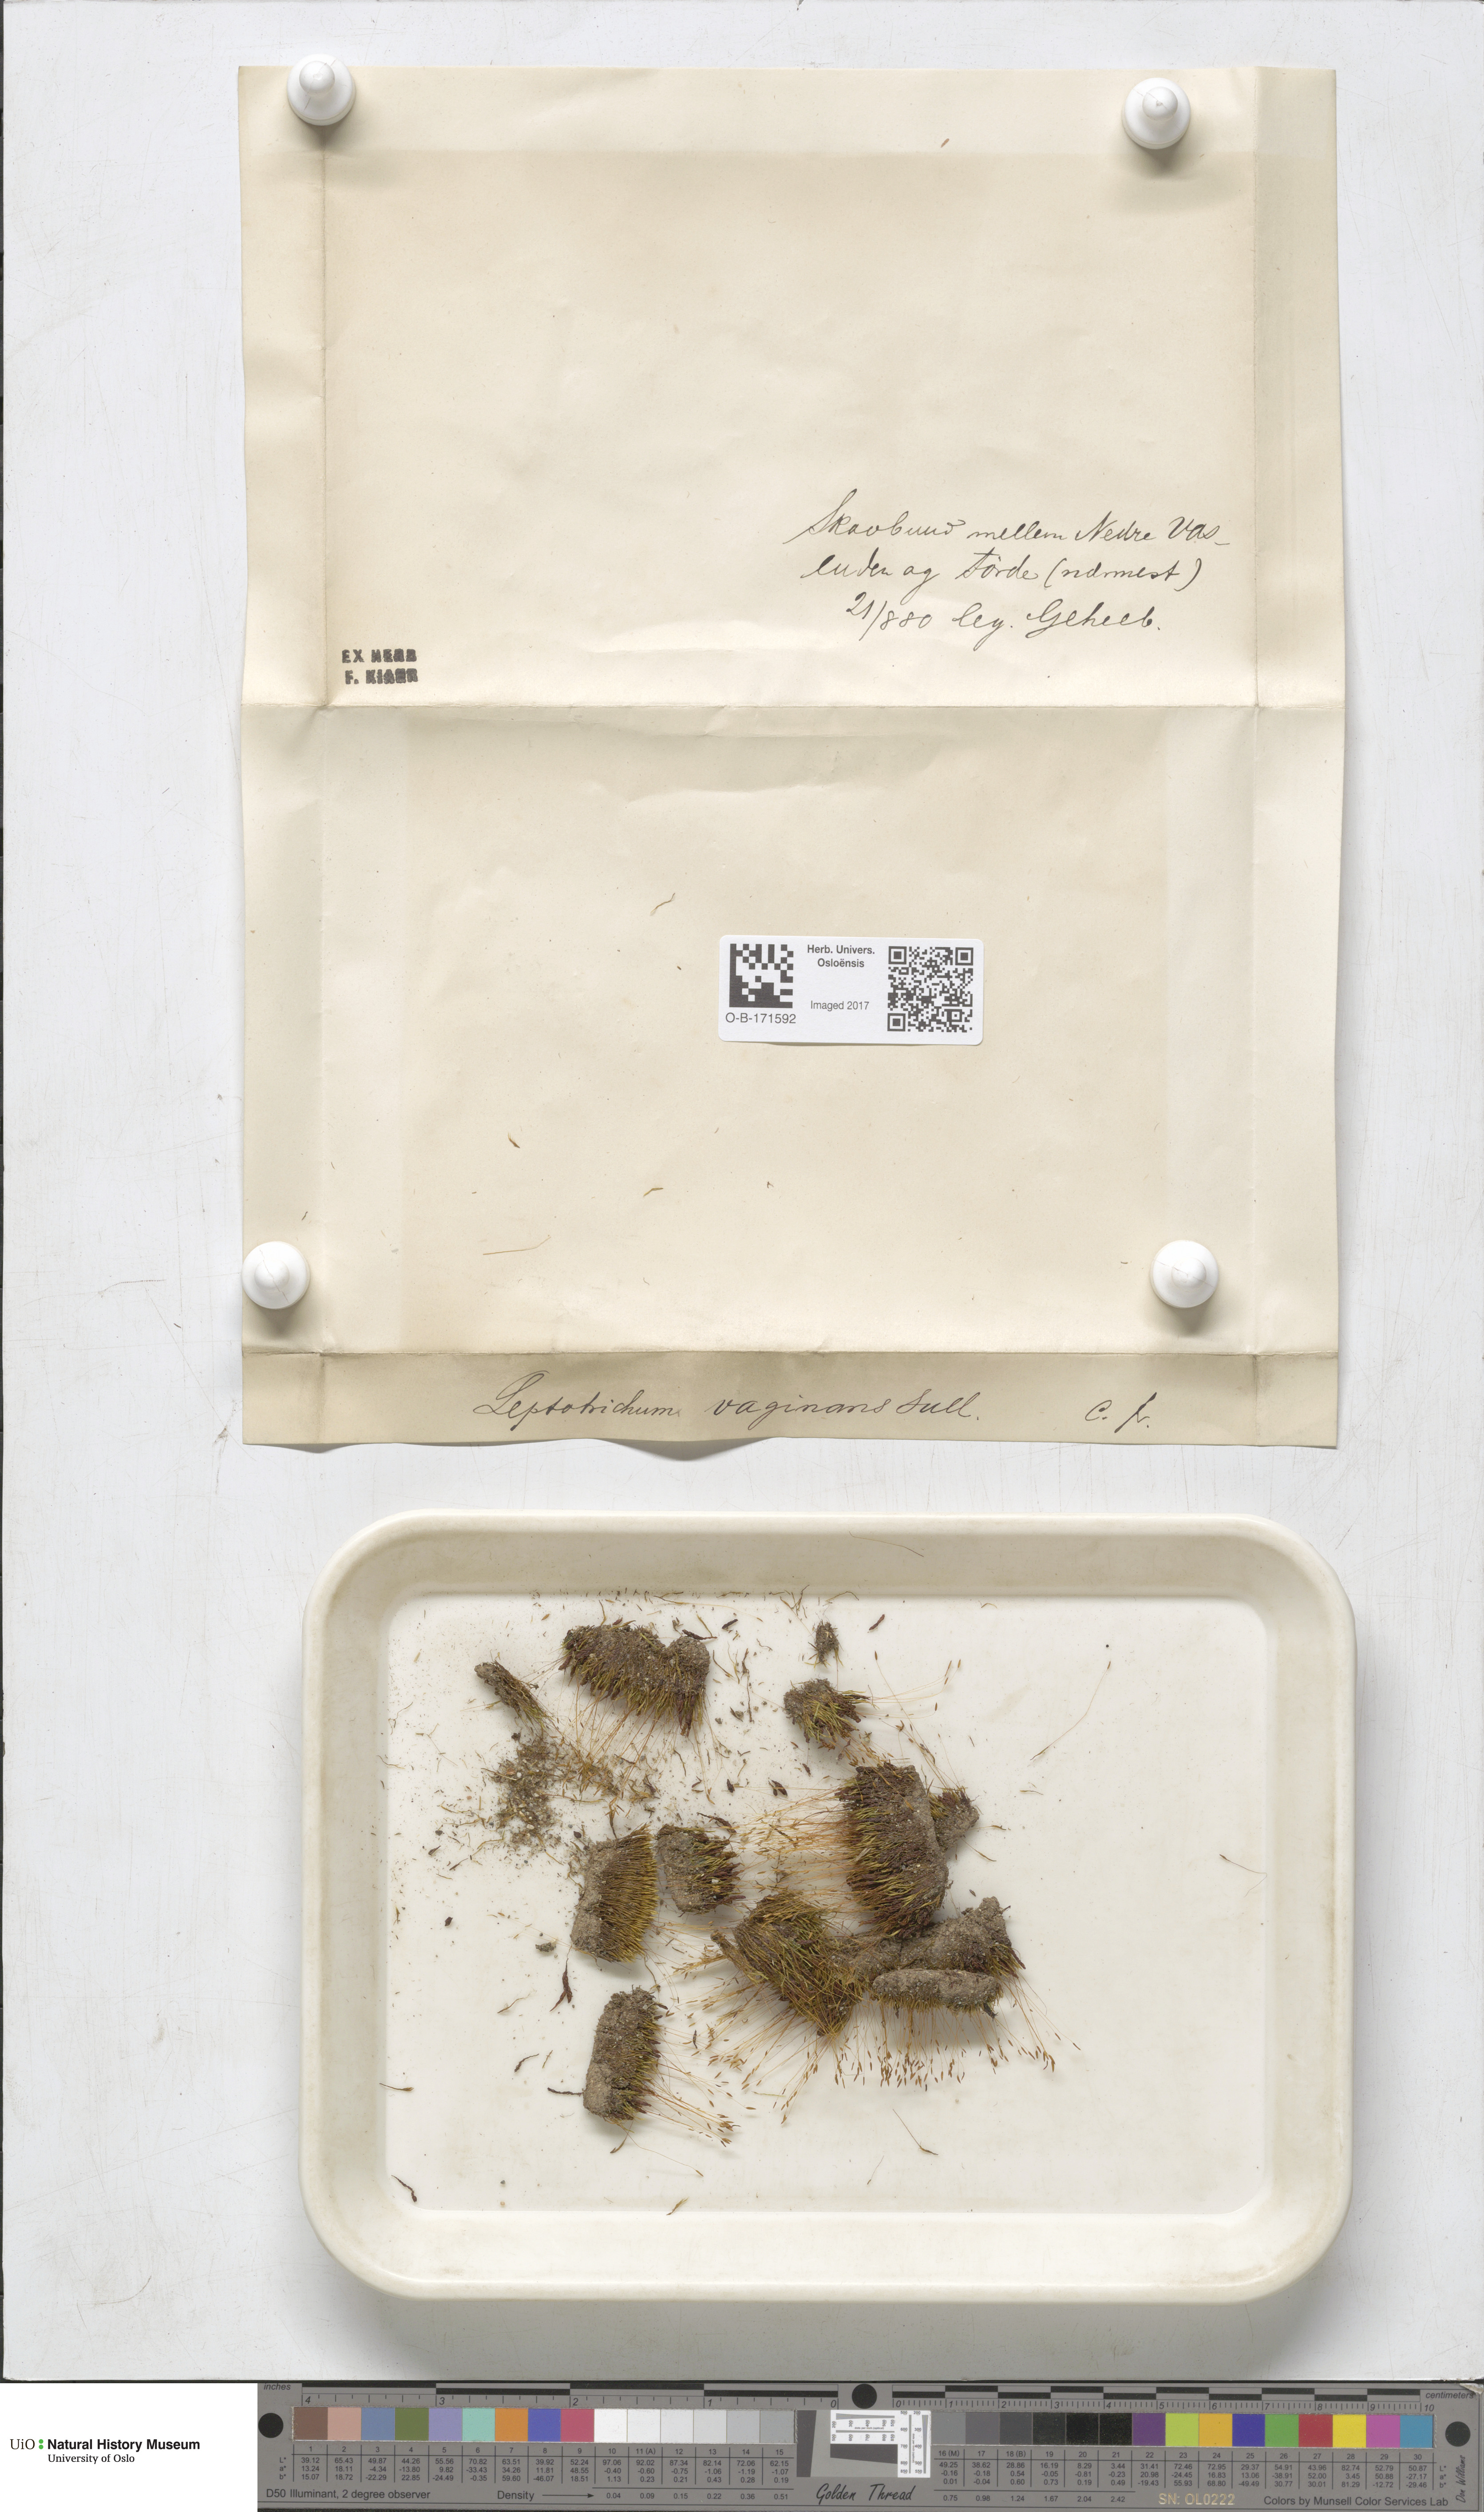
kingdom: Plantae
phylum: Bryophyta
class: Bryopsida
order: Dicranales
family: Ditrichaceae
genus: Ditrichum
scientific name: Ditrichum lineare
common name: Dark cow-hair moss
